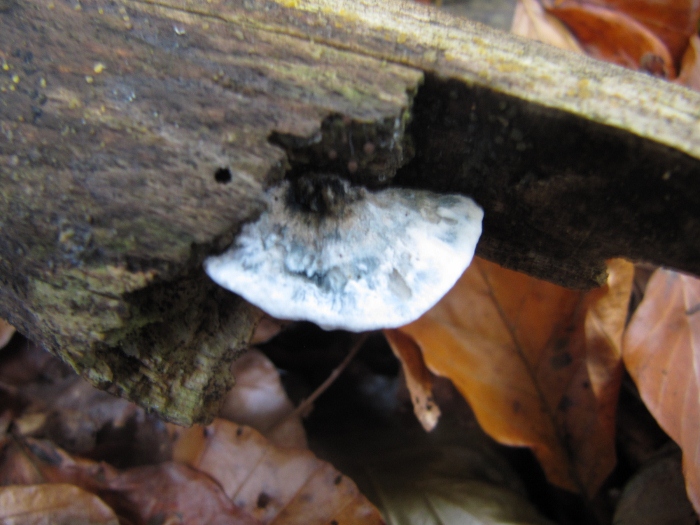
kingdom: Fungi
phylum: Basidiomycota
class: Agaricomycetes
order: Polyporales
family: Polyporaceae
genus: Cyanosporus
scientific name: Cyanosporus alni
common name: blegblå kødporesvamp
